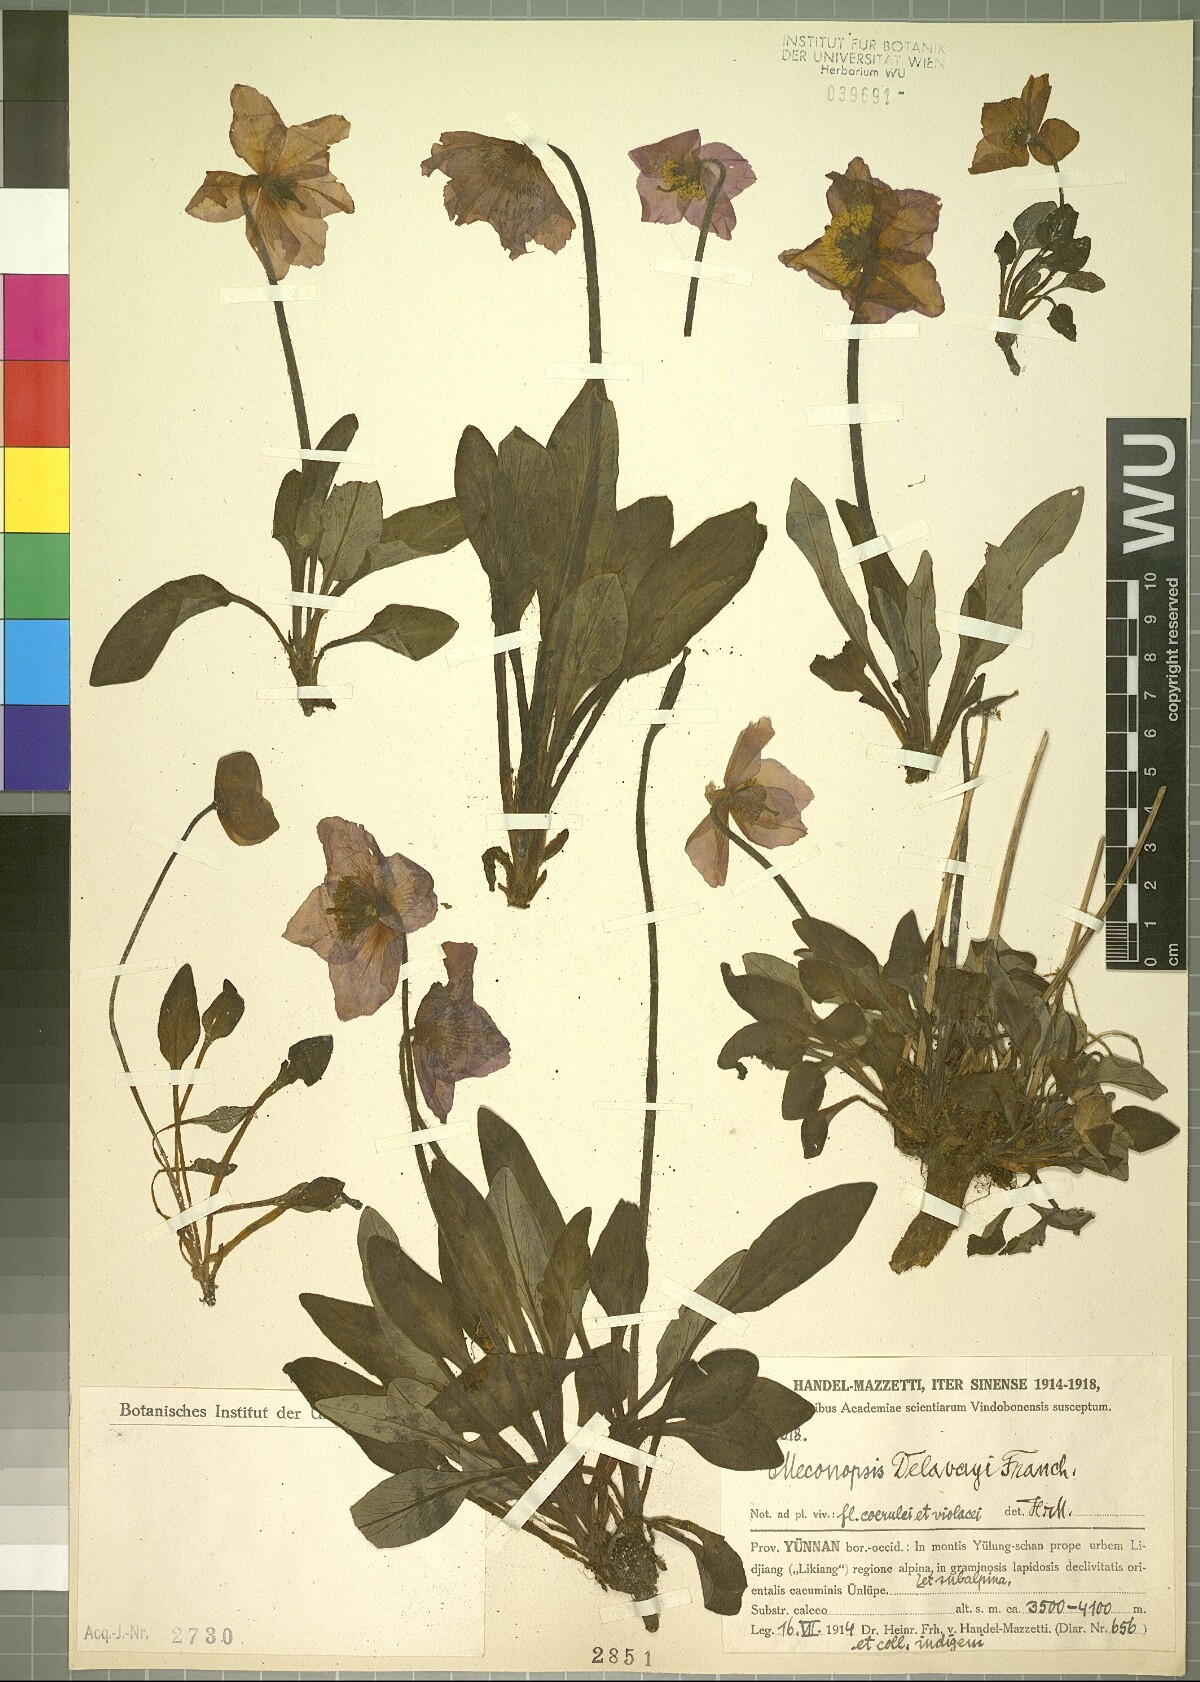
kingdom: Plantae
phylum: Tracheophyta
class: Magnoliopsida
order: Ranunculales
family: Papaveraceae
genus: Cathcartia
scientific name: Cathcartia delavayi
